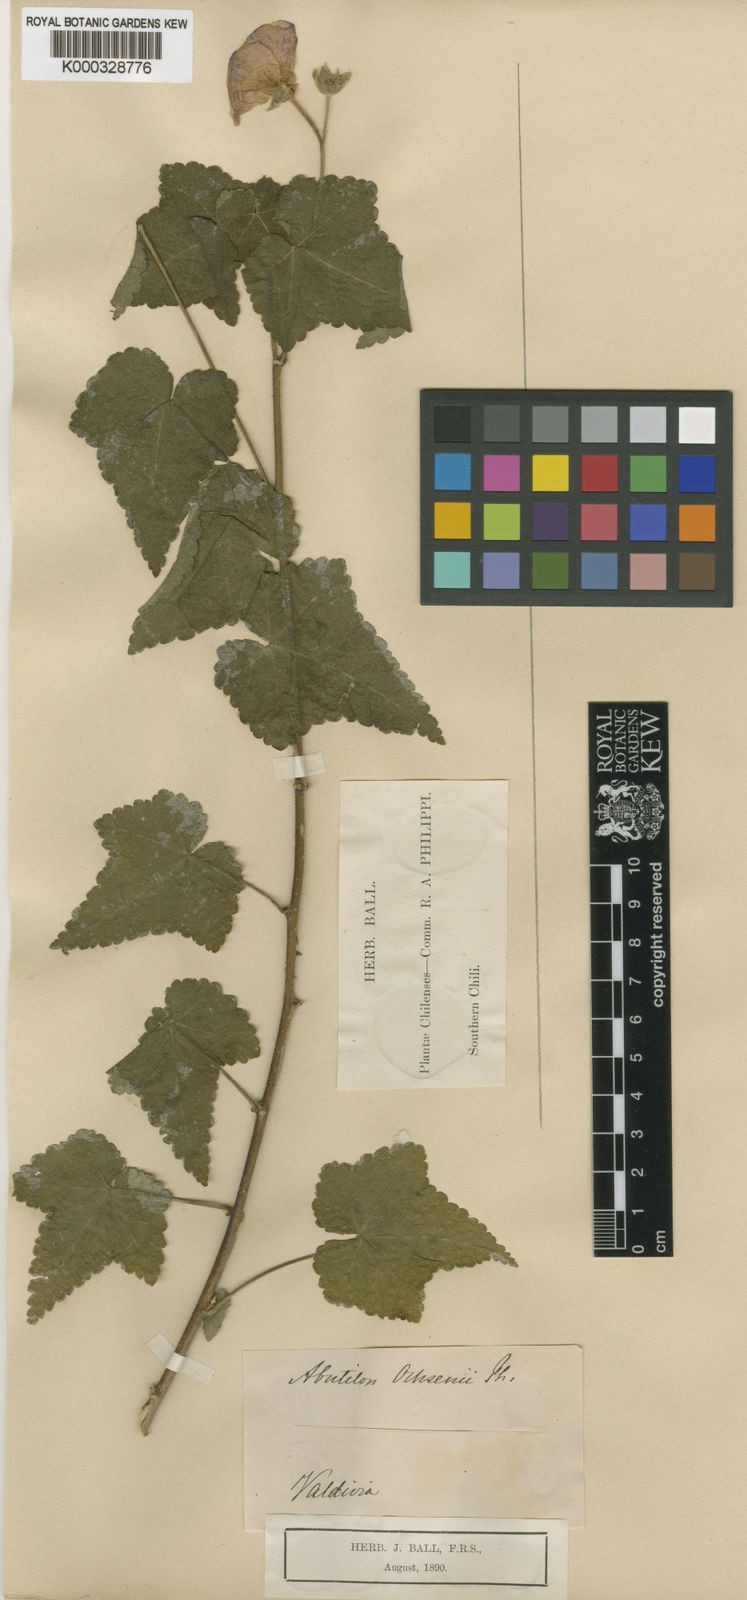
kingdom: Plantae
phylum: Tracheophyta
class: Magnoliopsida
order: Malvales
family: Malvaceae
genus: Corynabutilon
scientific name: Corynabutilon ochsenii
